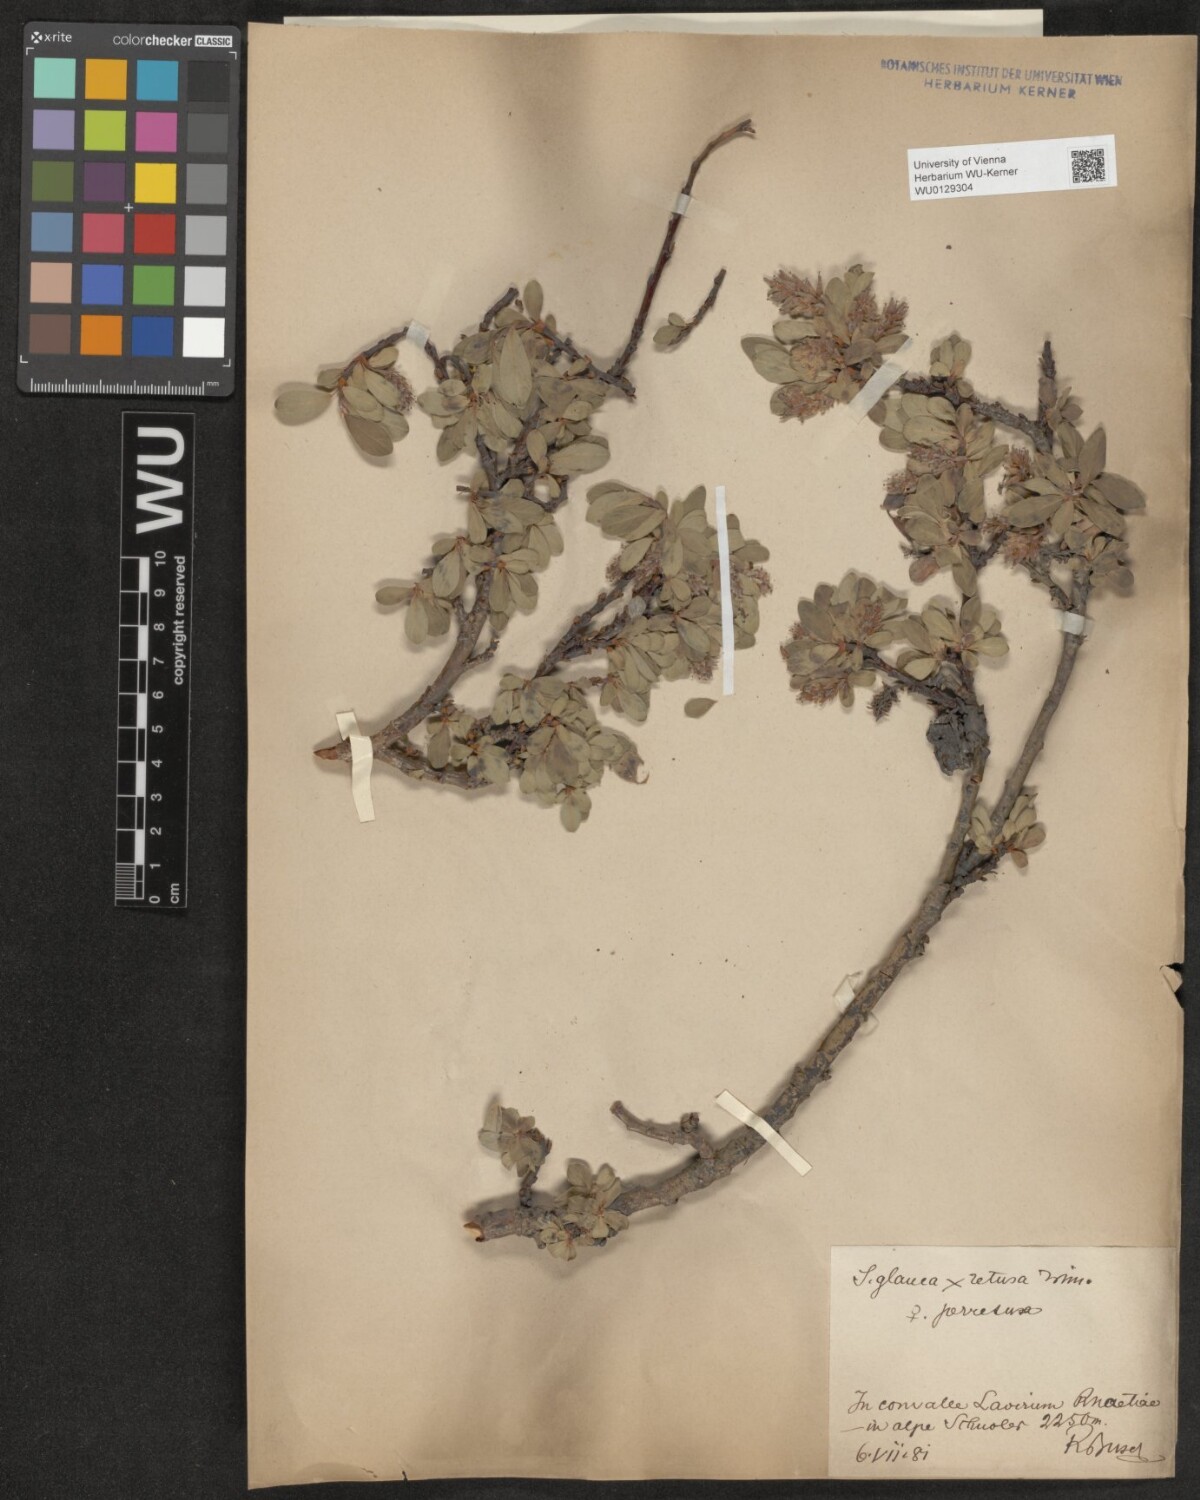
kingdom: Plantae
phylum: Tracheophyta
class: Magnoliopsida
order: Malpighiales
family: Salicaceae
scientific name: Salicaceae
